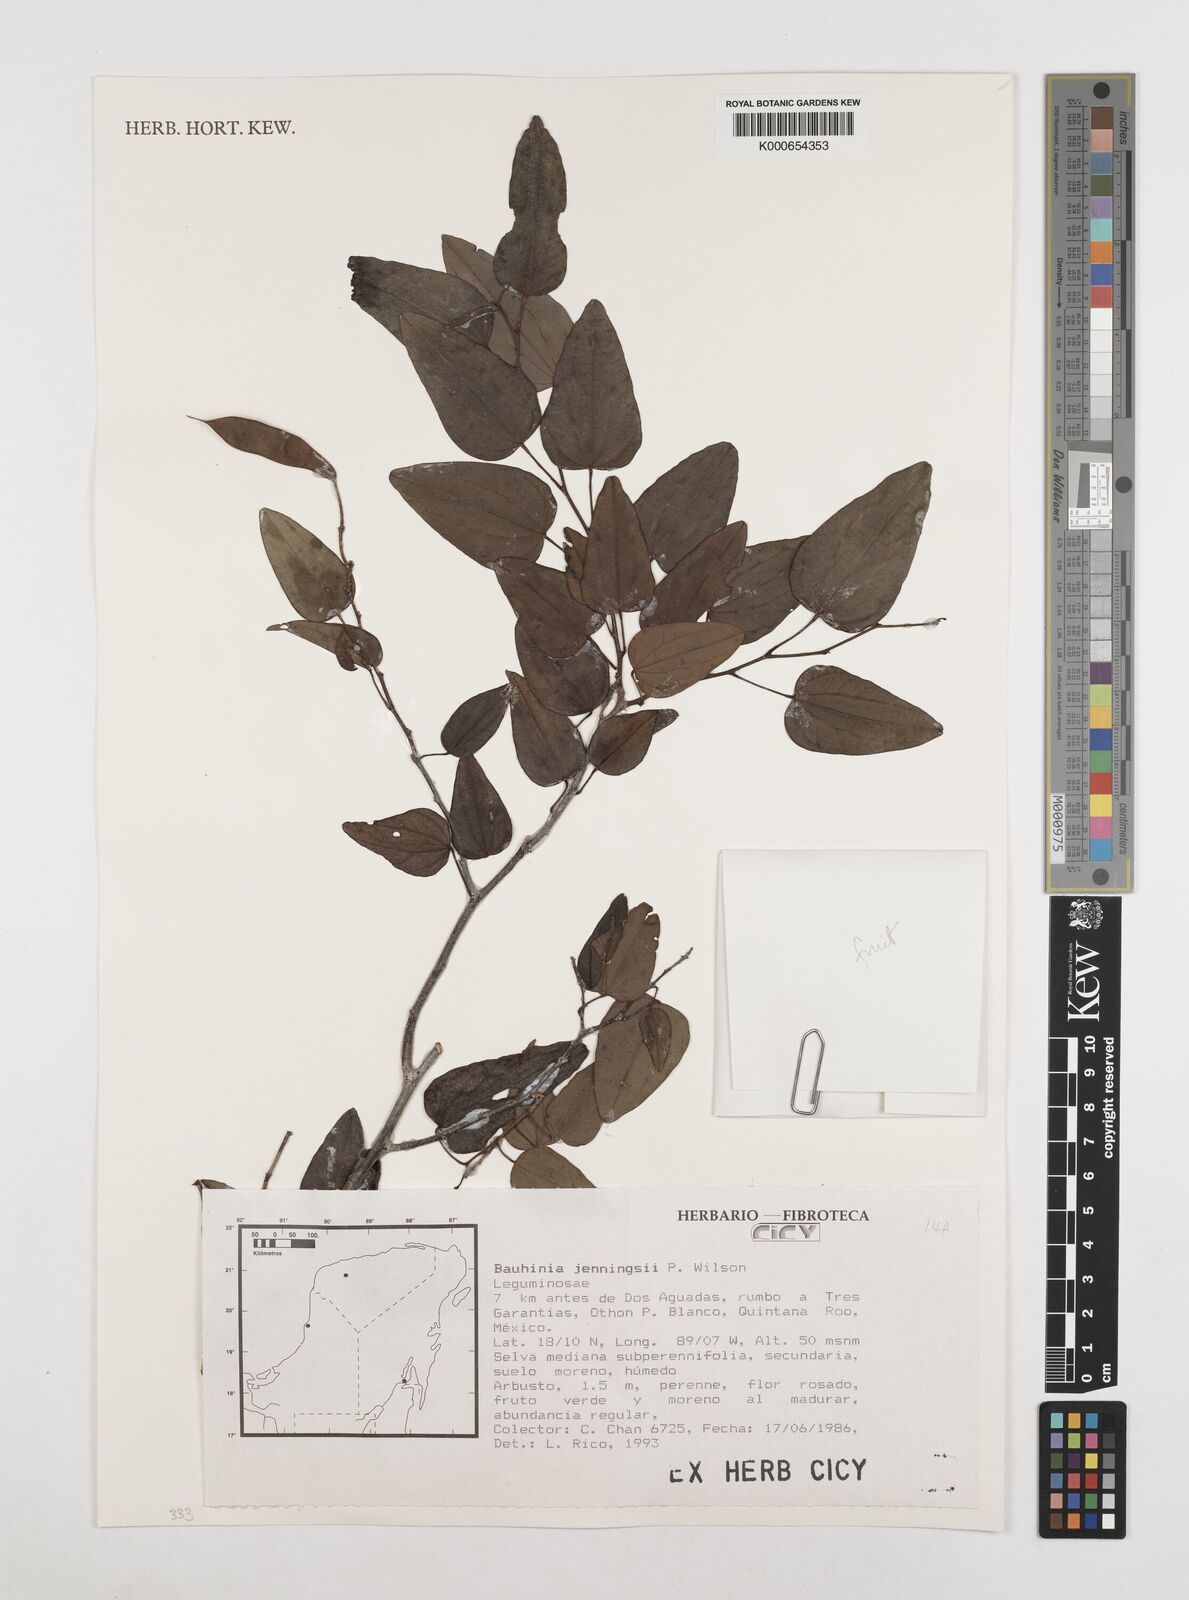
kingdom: Plantae
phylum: Tracheophyta
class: Magnoliopsida
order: Fabales
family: Fabaceae
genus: Bauhinia
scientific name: Bauhinia jenningsii
